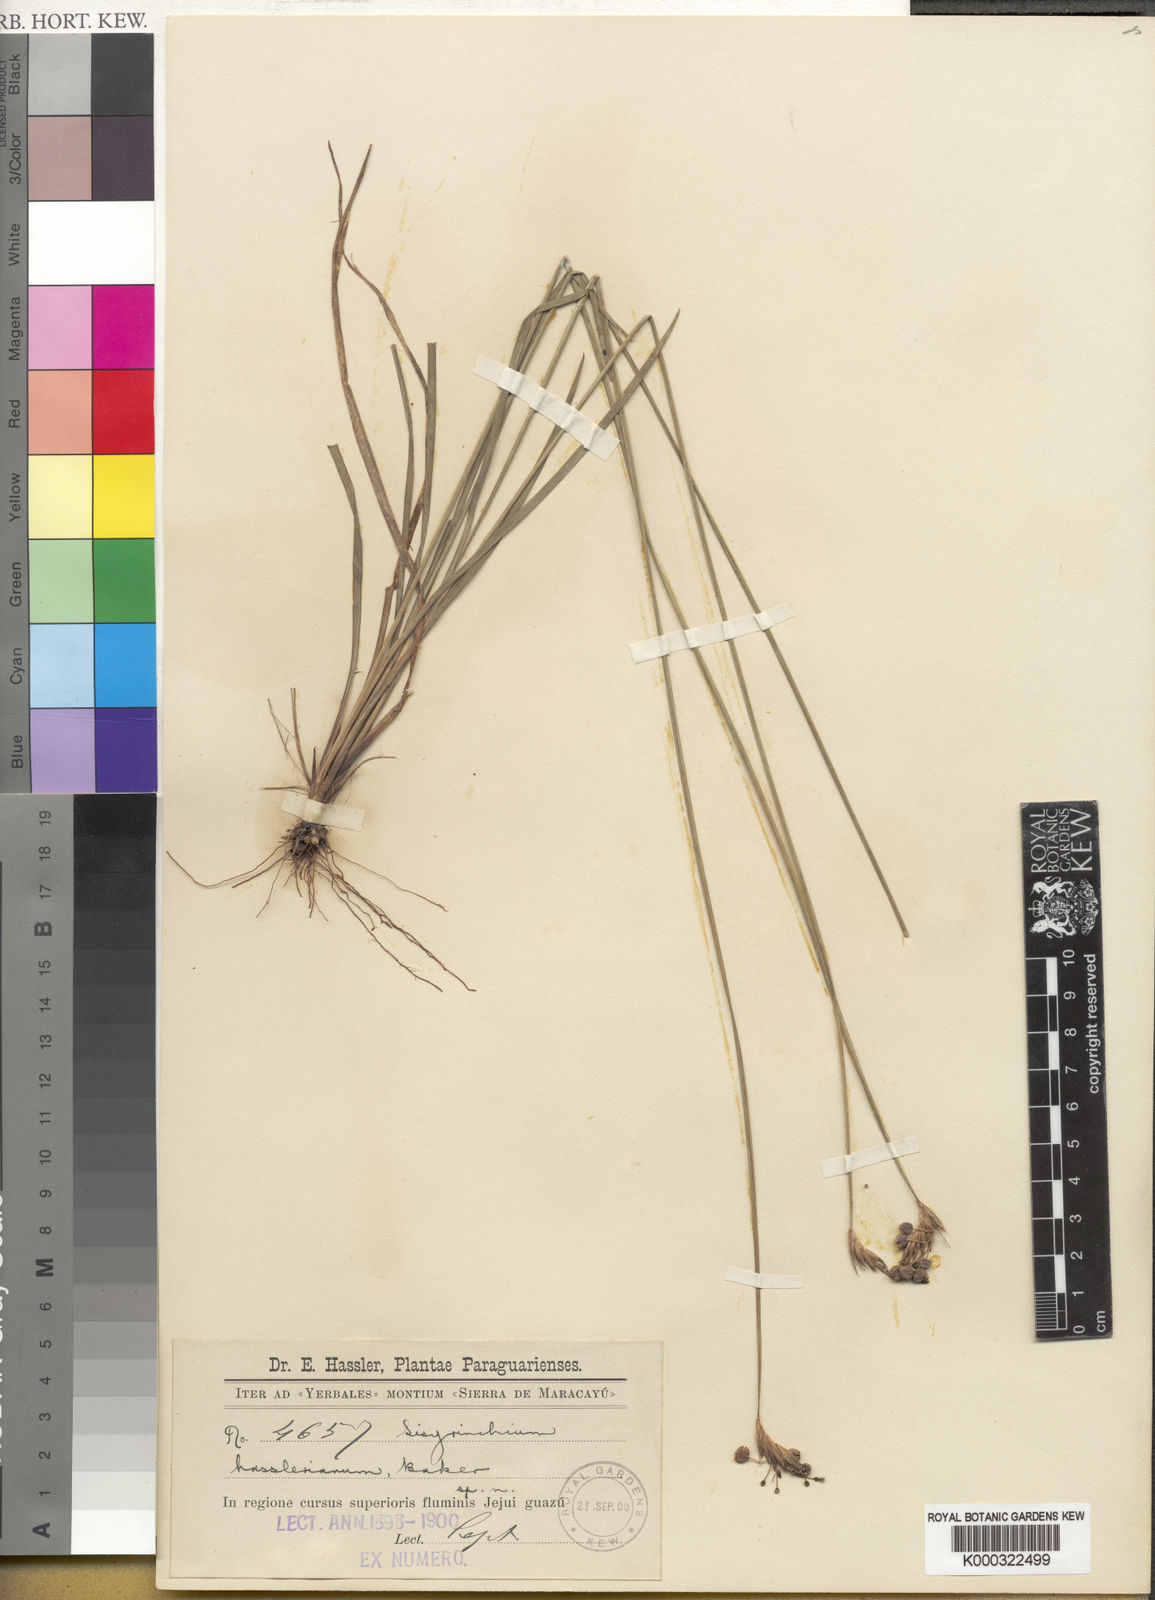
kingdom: Plantae
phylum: Tracheophyta
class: Liliopsida
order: Asparagales
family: Iridaceae
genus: Sisyrinchium
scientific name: Sisyrinchium hasslerianum
